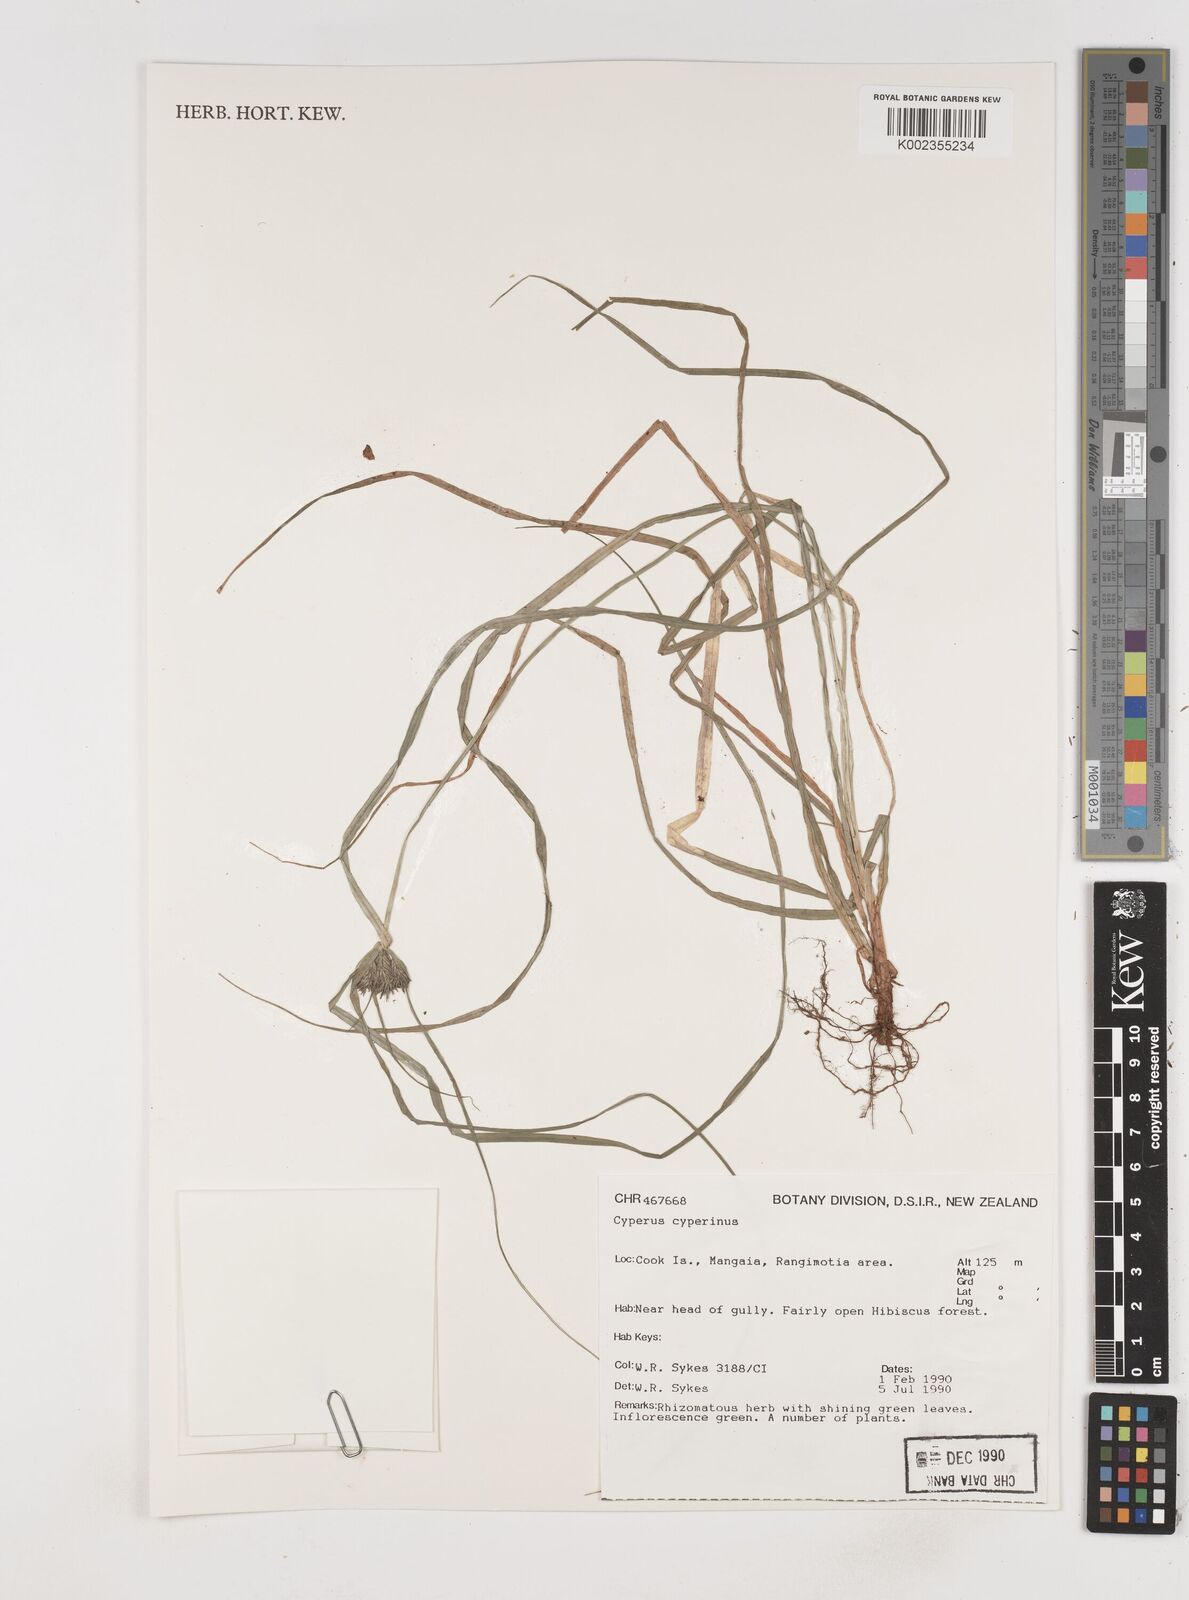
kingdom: Plantae
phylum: Tracheophyta
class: Liliopsida
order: Poales
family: Cyperaceae
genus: Cyperus
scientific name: Cyperus cyperinus
